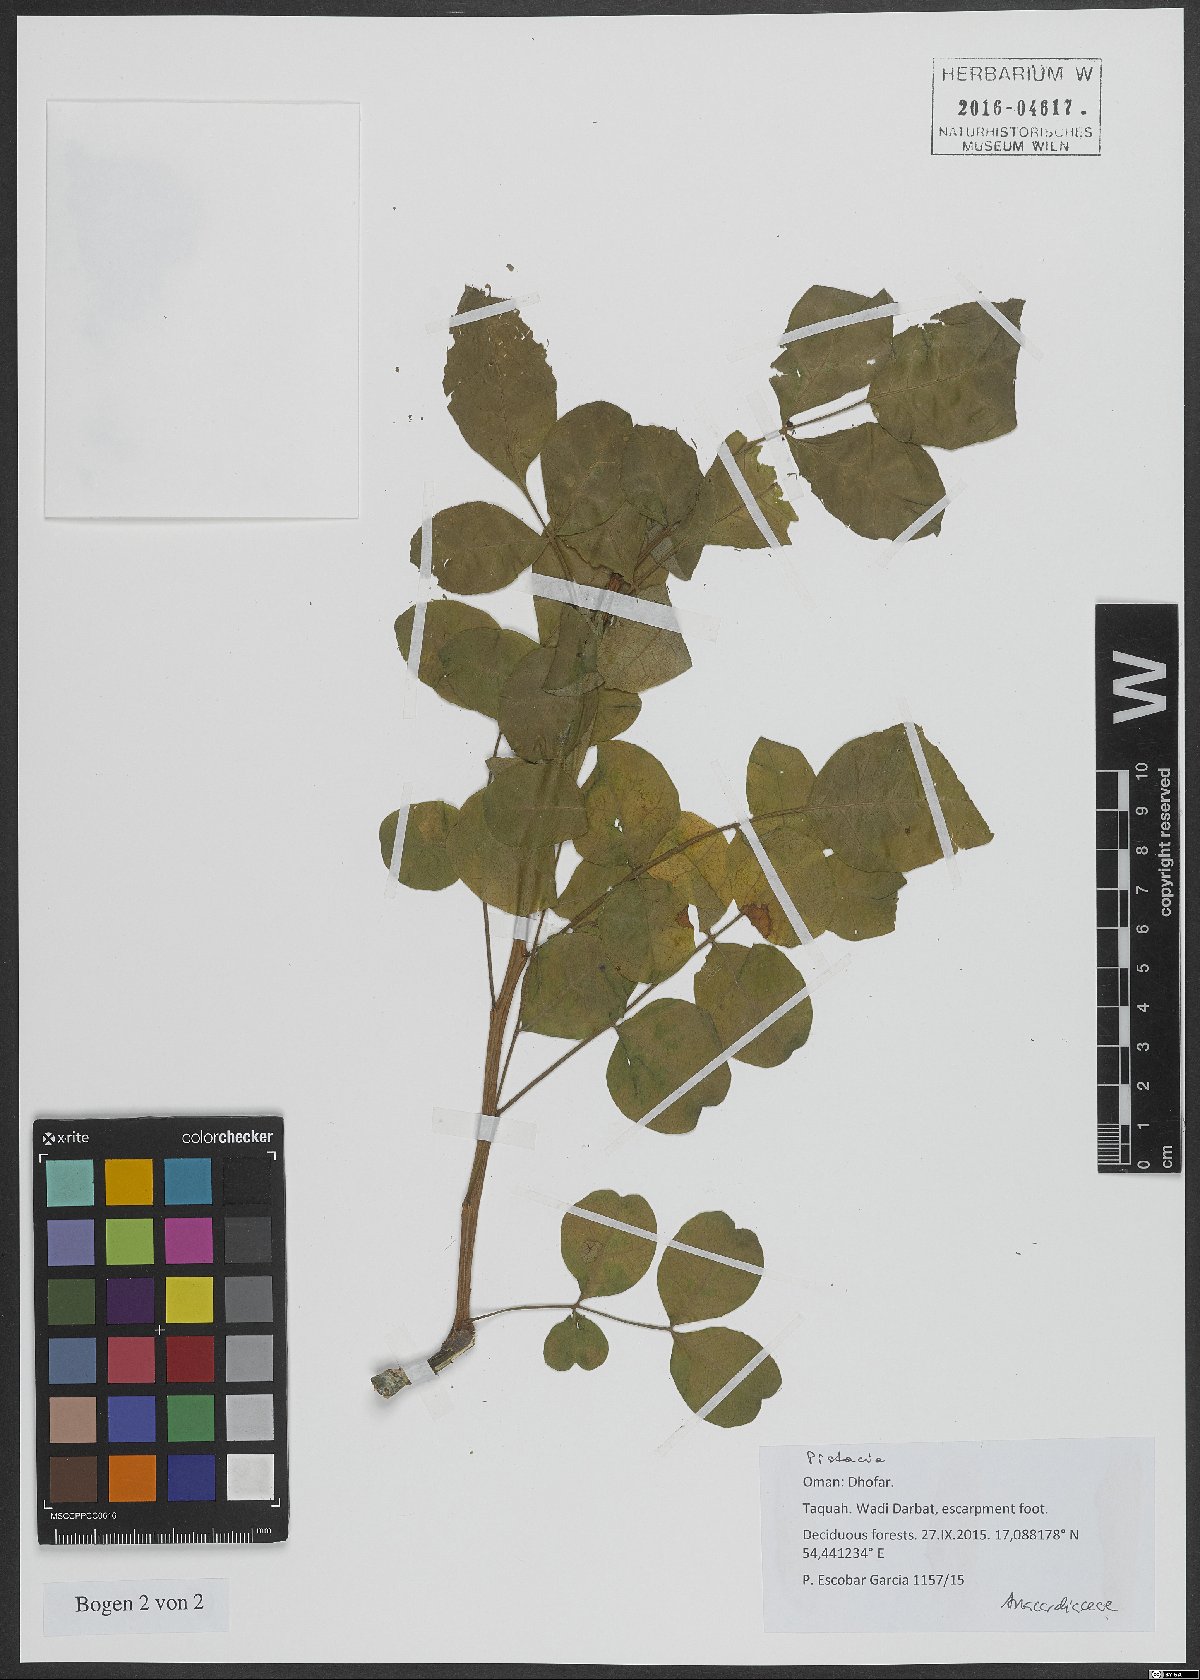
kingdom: Plantae
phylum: Tracheophyta
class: Magnoliopsida
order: Sapindales
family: Anacardiaceae
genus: Pistacia
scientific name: Pistacia
